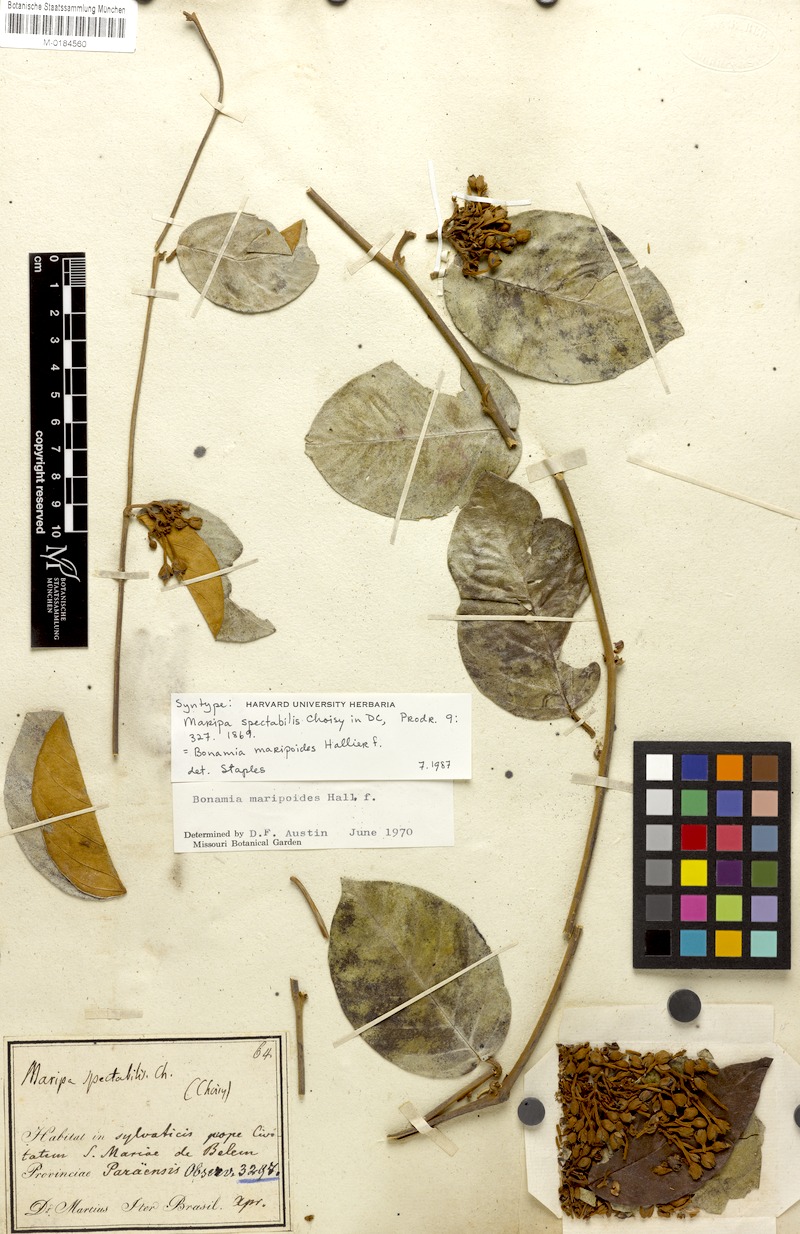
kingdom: Plantae
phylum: Tracheophyta
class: Magnoliopsida
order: Solanales
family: Convolvulaceae
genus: Bonamia
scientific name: Bonamia maripoides
